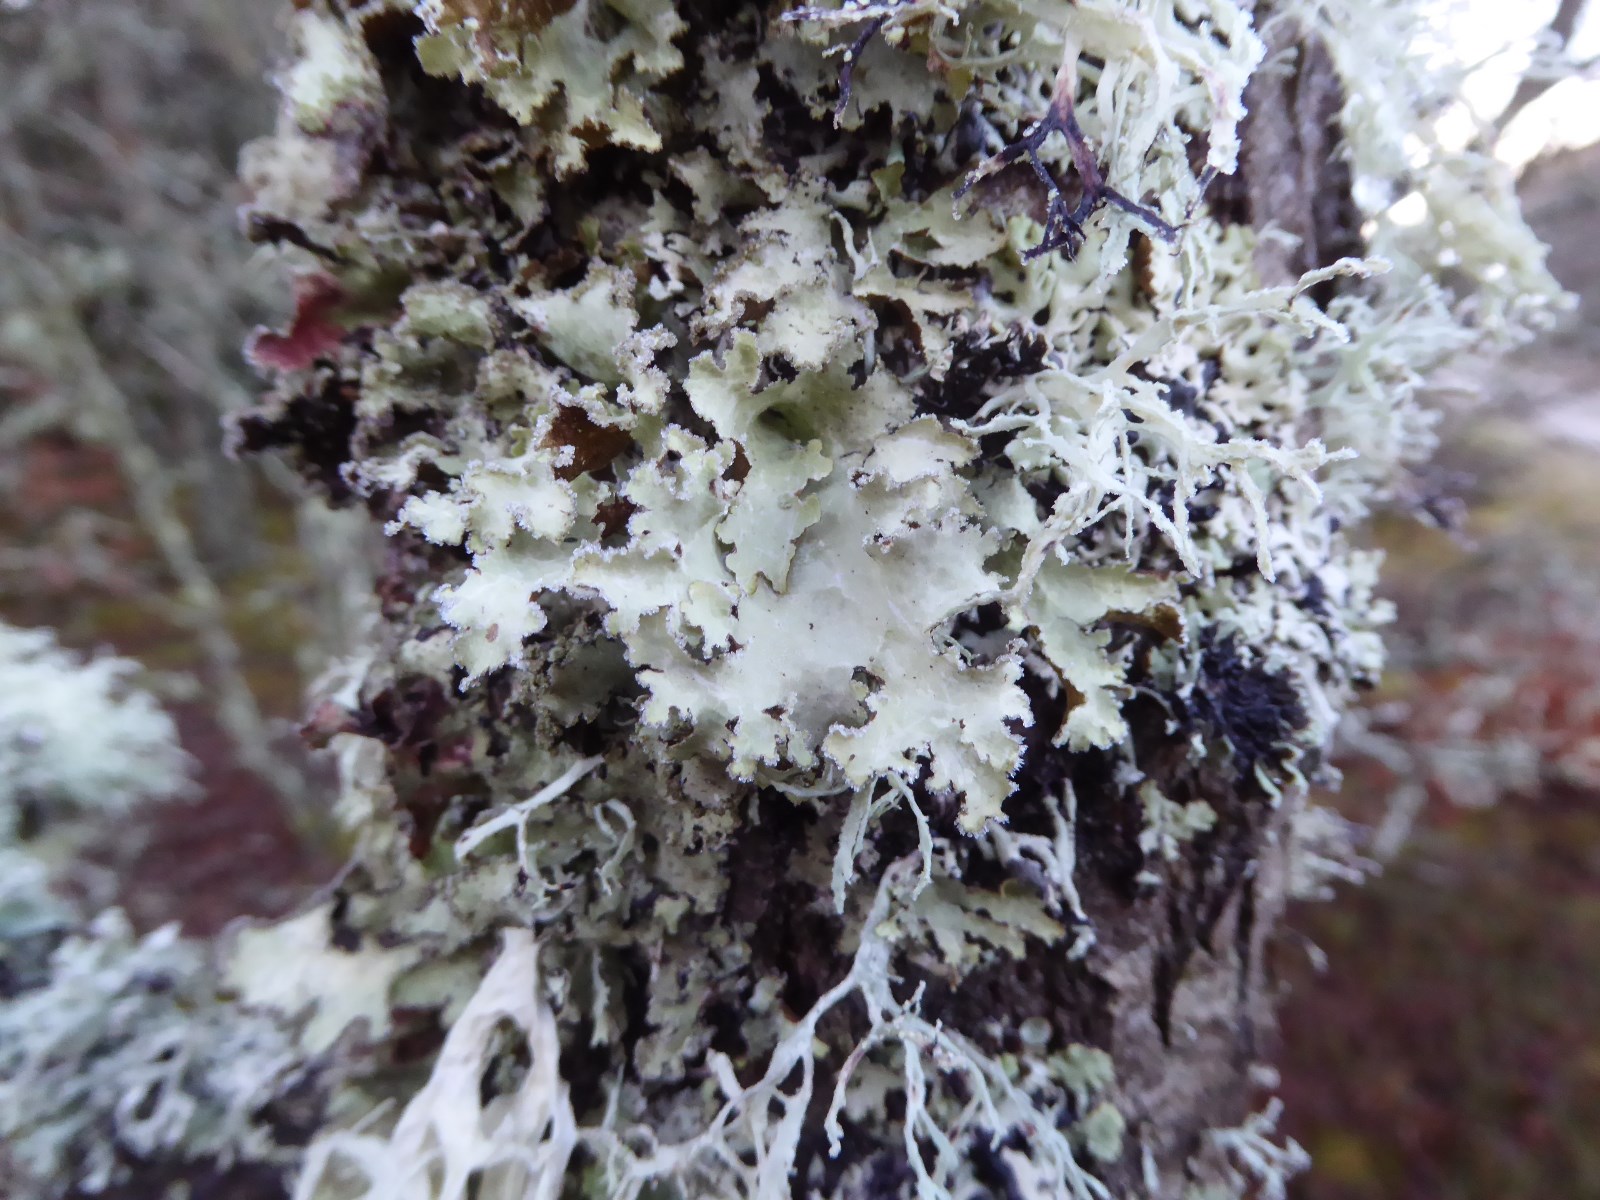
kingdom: Fungi
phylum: Ascomycota
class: Lecanoromycetes
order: Lecanorales
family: Parmeliaceae
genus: Platismatia
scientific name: Platismatia glauca
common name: blågrå papirlav
